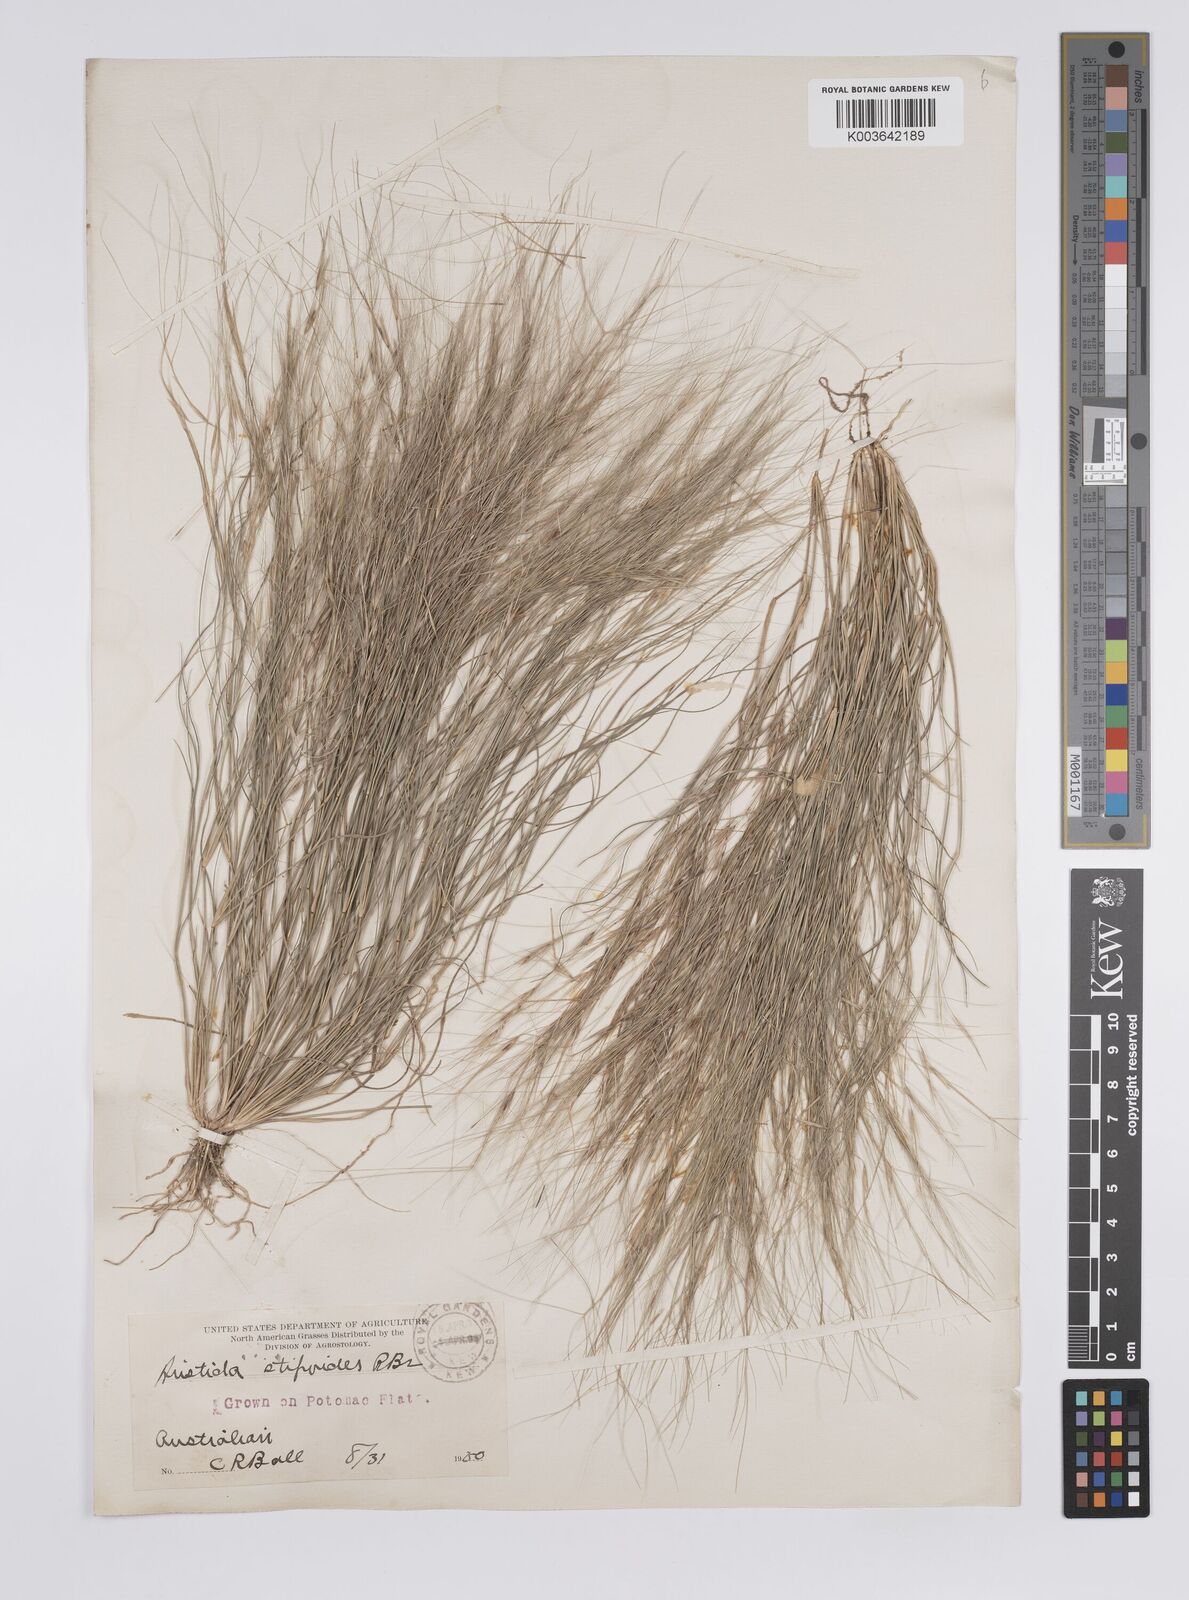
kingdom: Plantae
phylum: Tracheophyta
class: Liliopsida
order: Poales
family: Poaceae
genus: Aristida
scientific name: Aristida holathera
